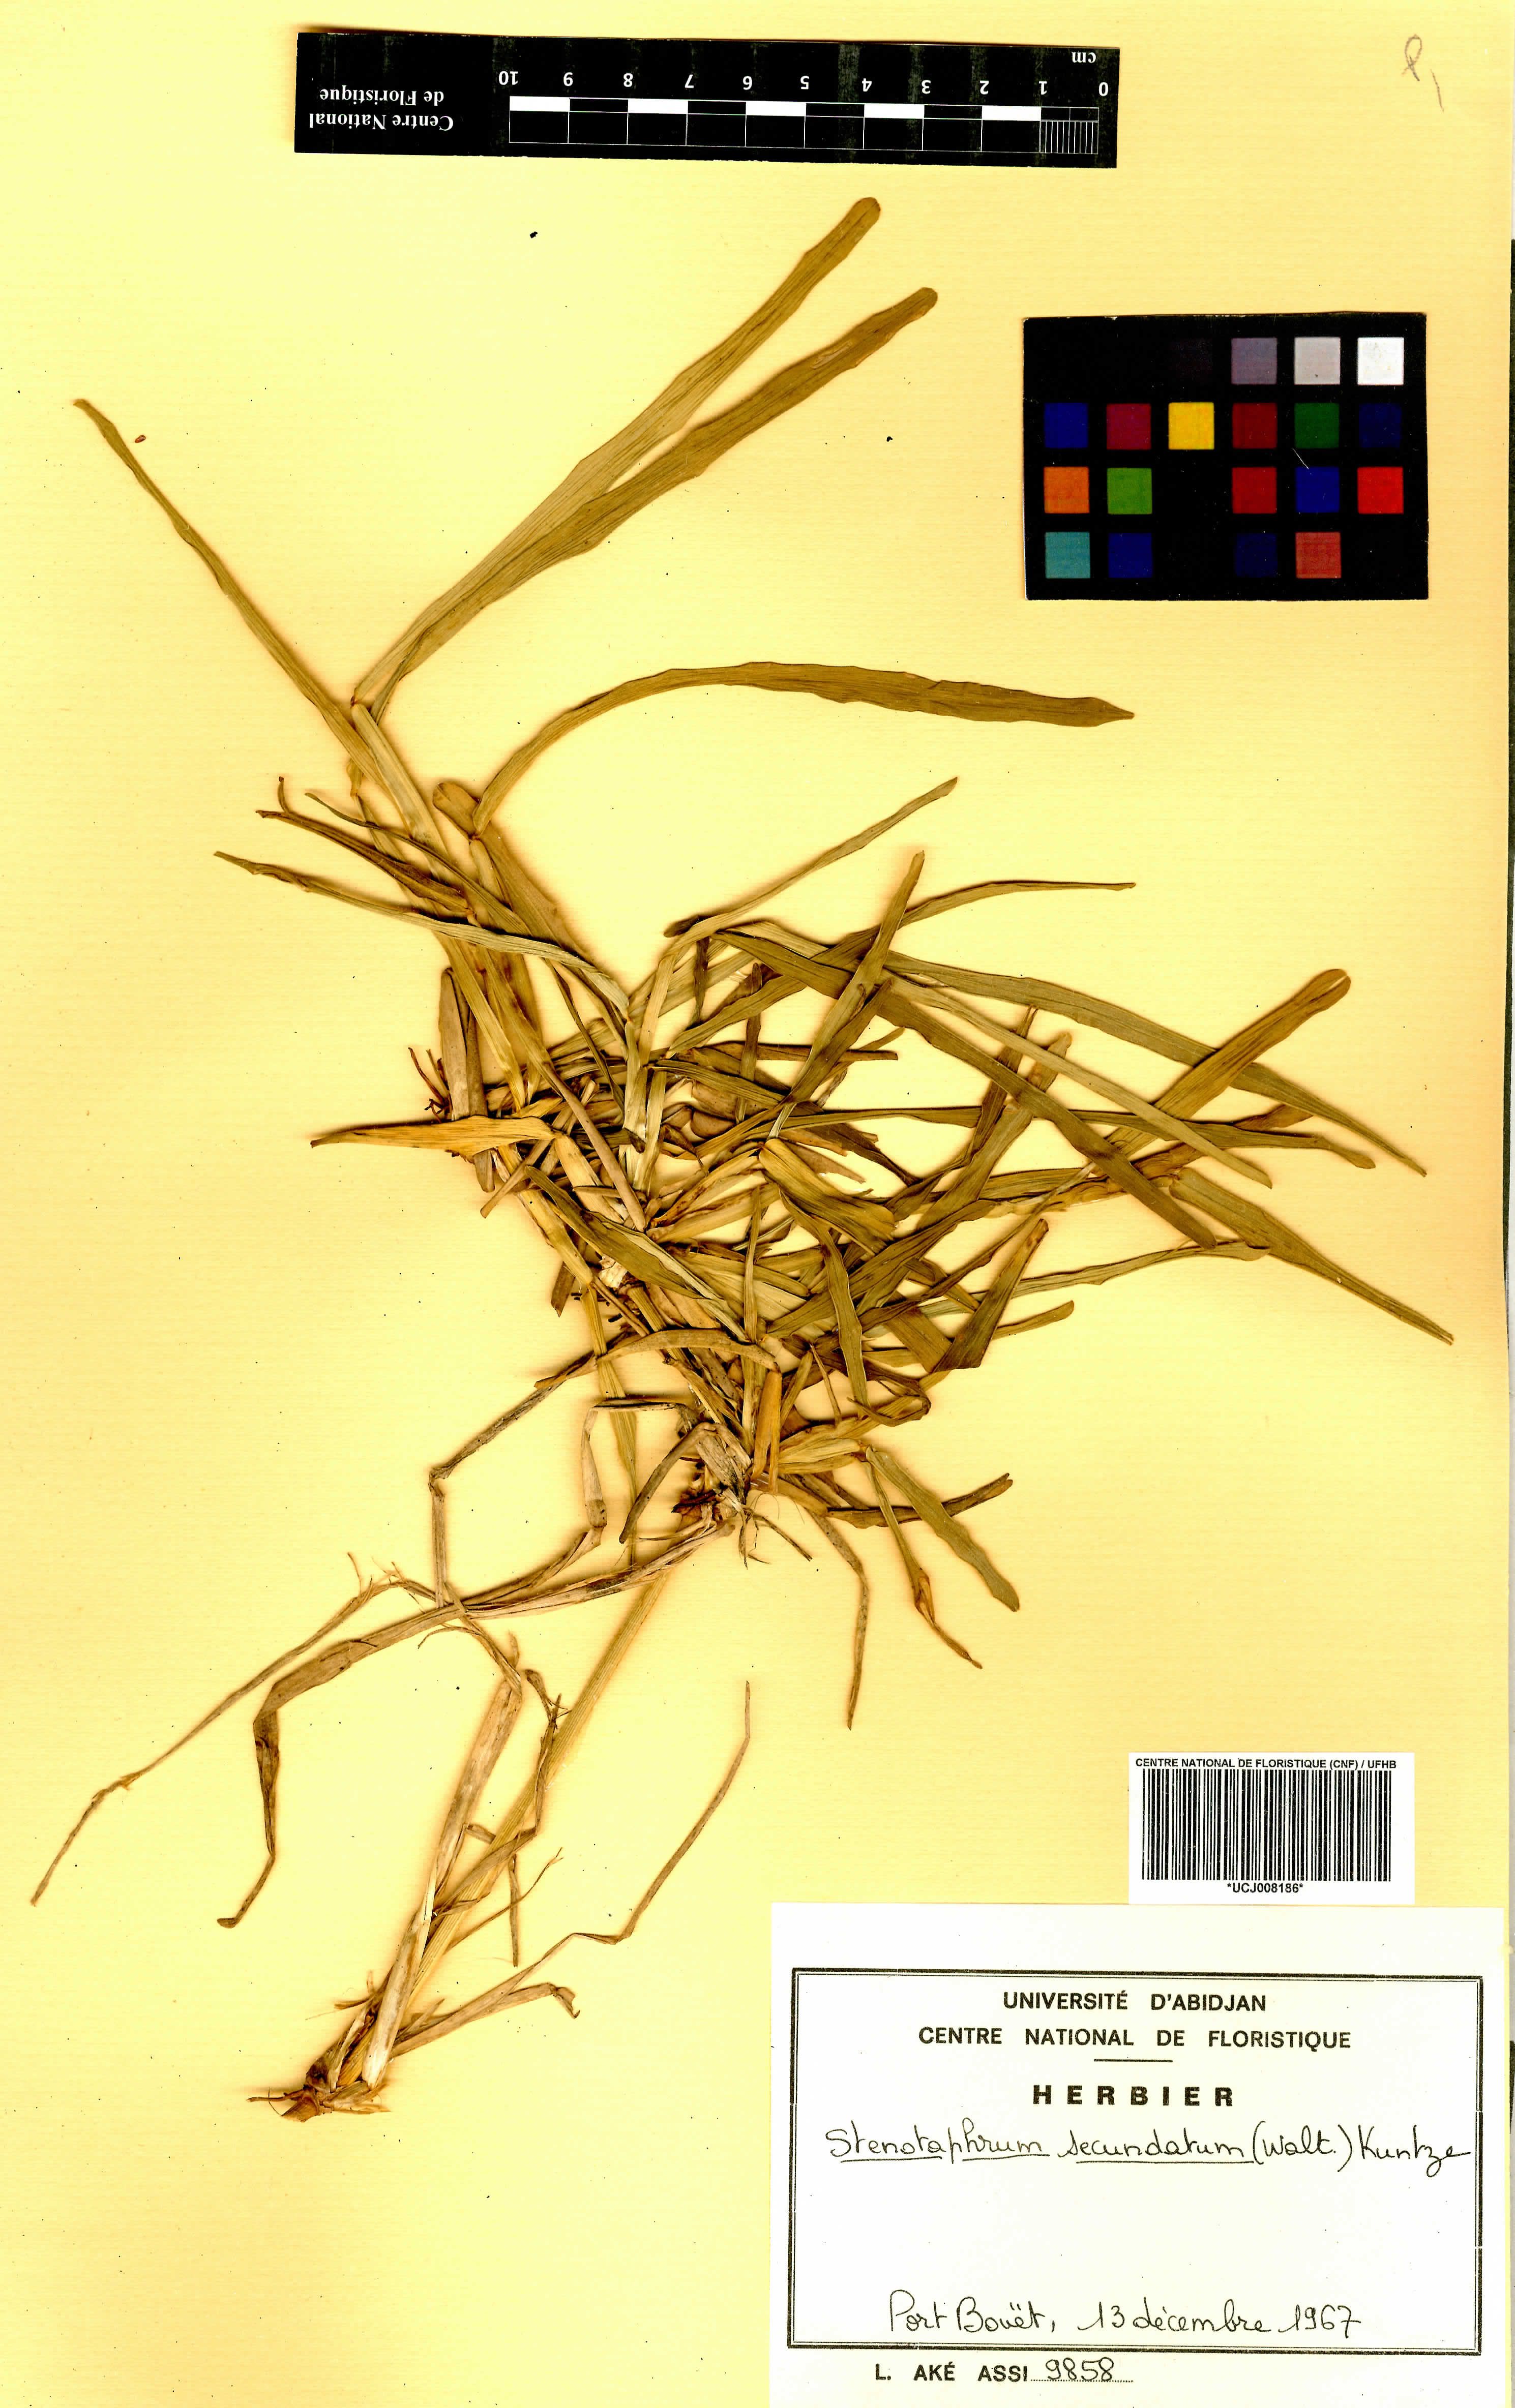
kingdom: Plantae
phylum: Tracheophyta
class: Liliopsida
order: Poales
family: Poaceae
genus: Stenotaphrum
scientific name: Stenotaphrum secundatum
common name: St. augustine grass
